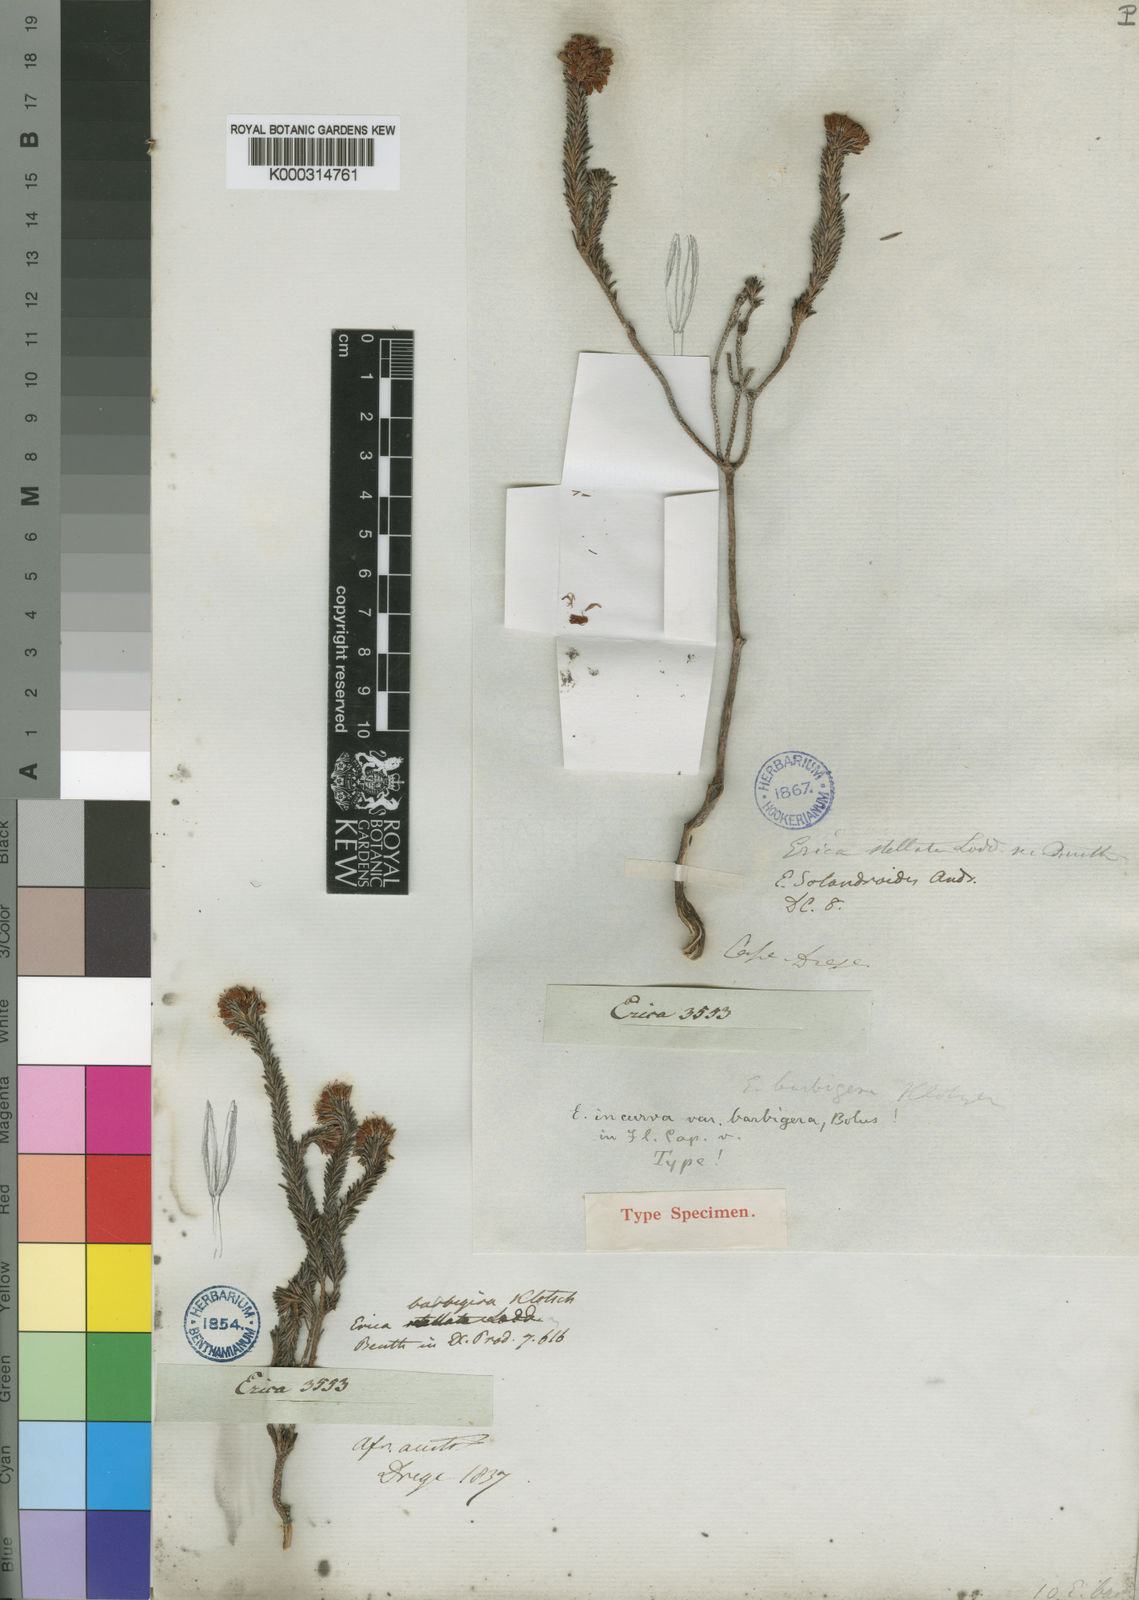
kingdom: Plantae
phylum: Tracheophyta
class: Magnoliopsida
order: Ericales
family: Ericaceae
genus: Erica
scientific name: Erica
